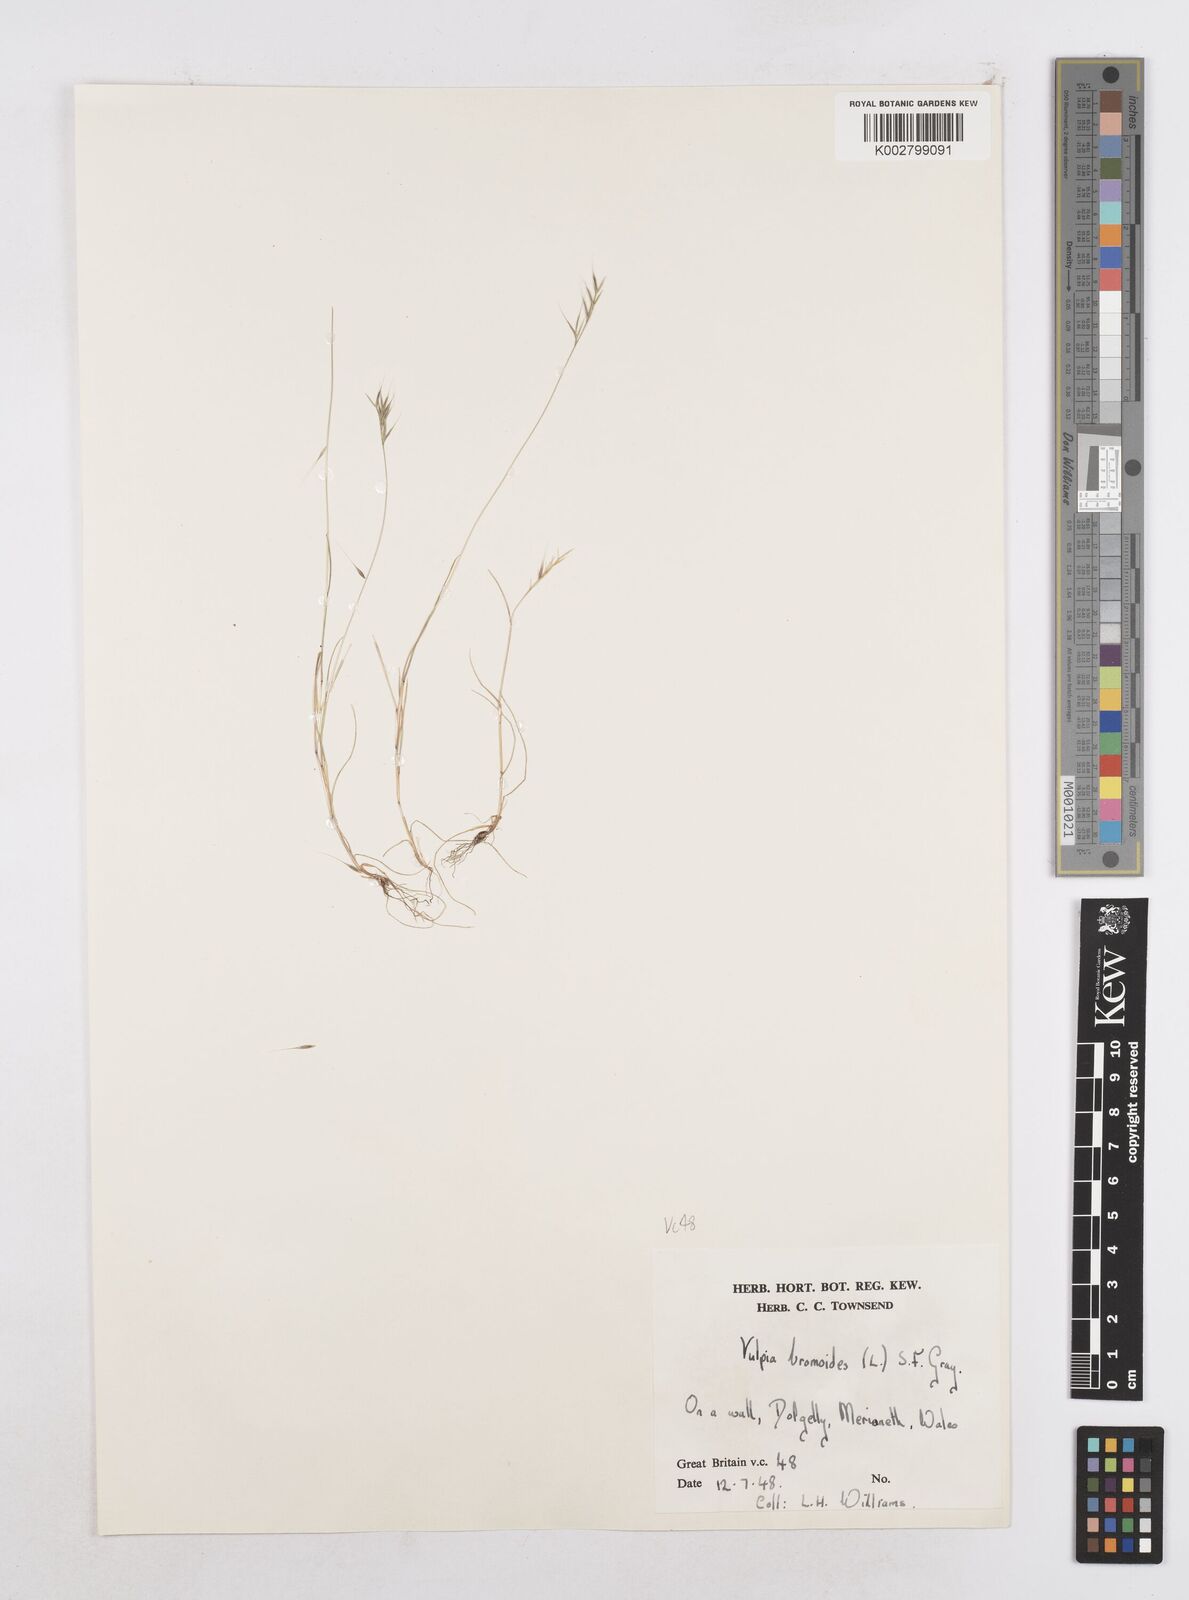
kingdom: Plantae
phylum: Tracheophyta
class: Liliopsida
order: Poales
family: Poaceae
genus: Festuca
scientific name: Festuca bromoides
